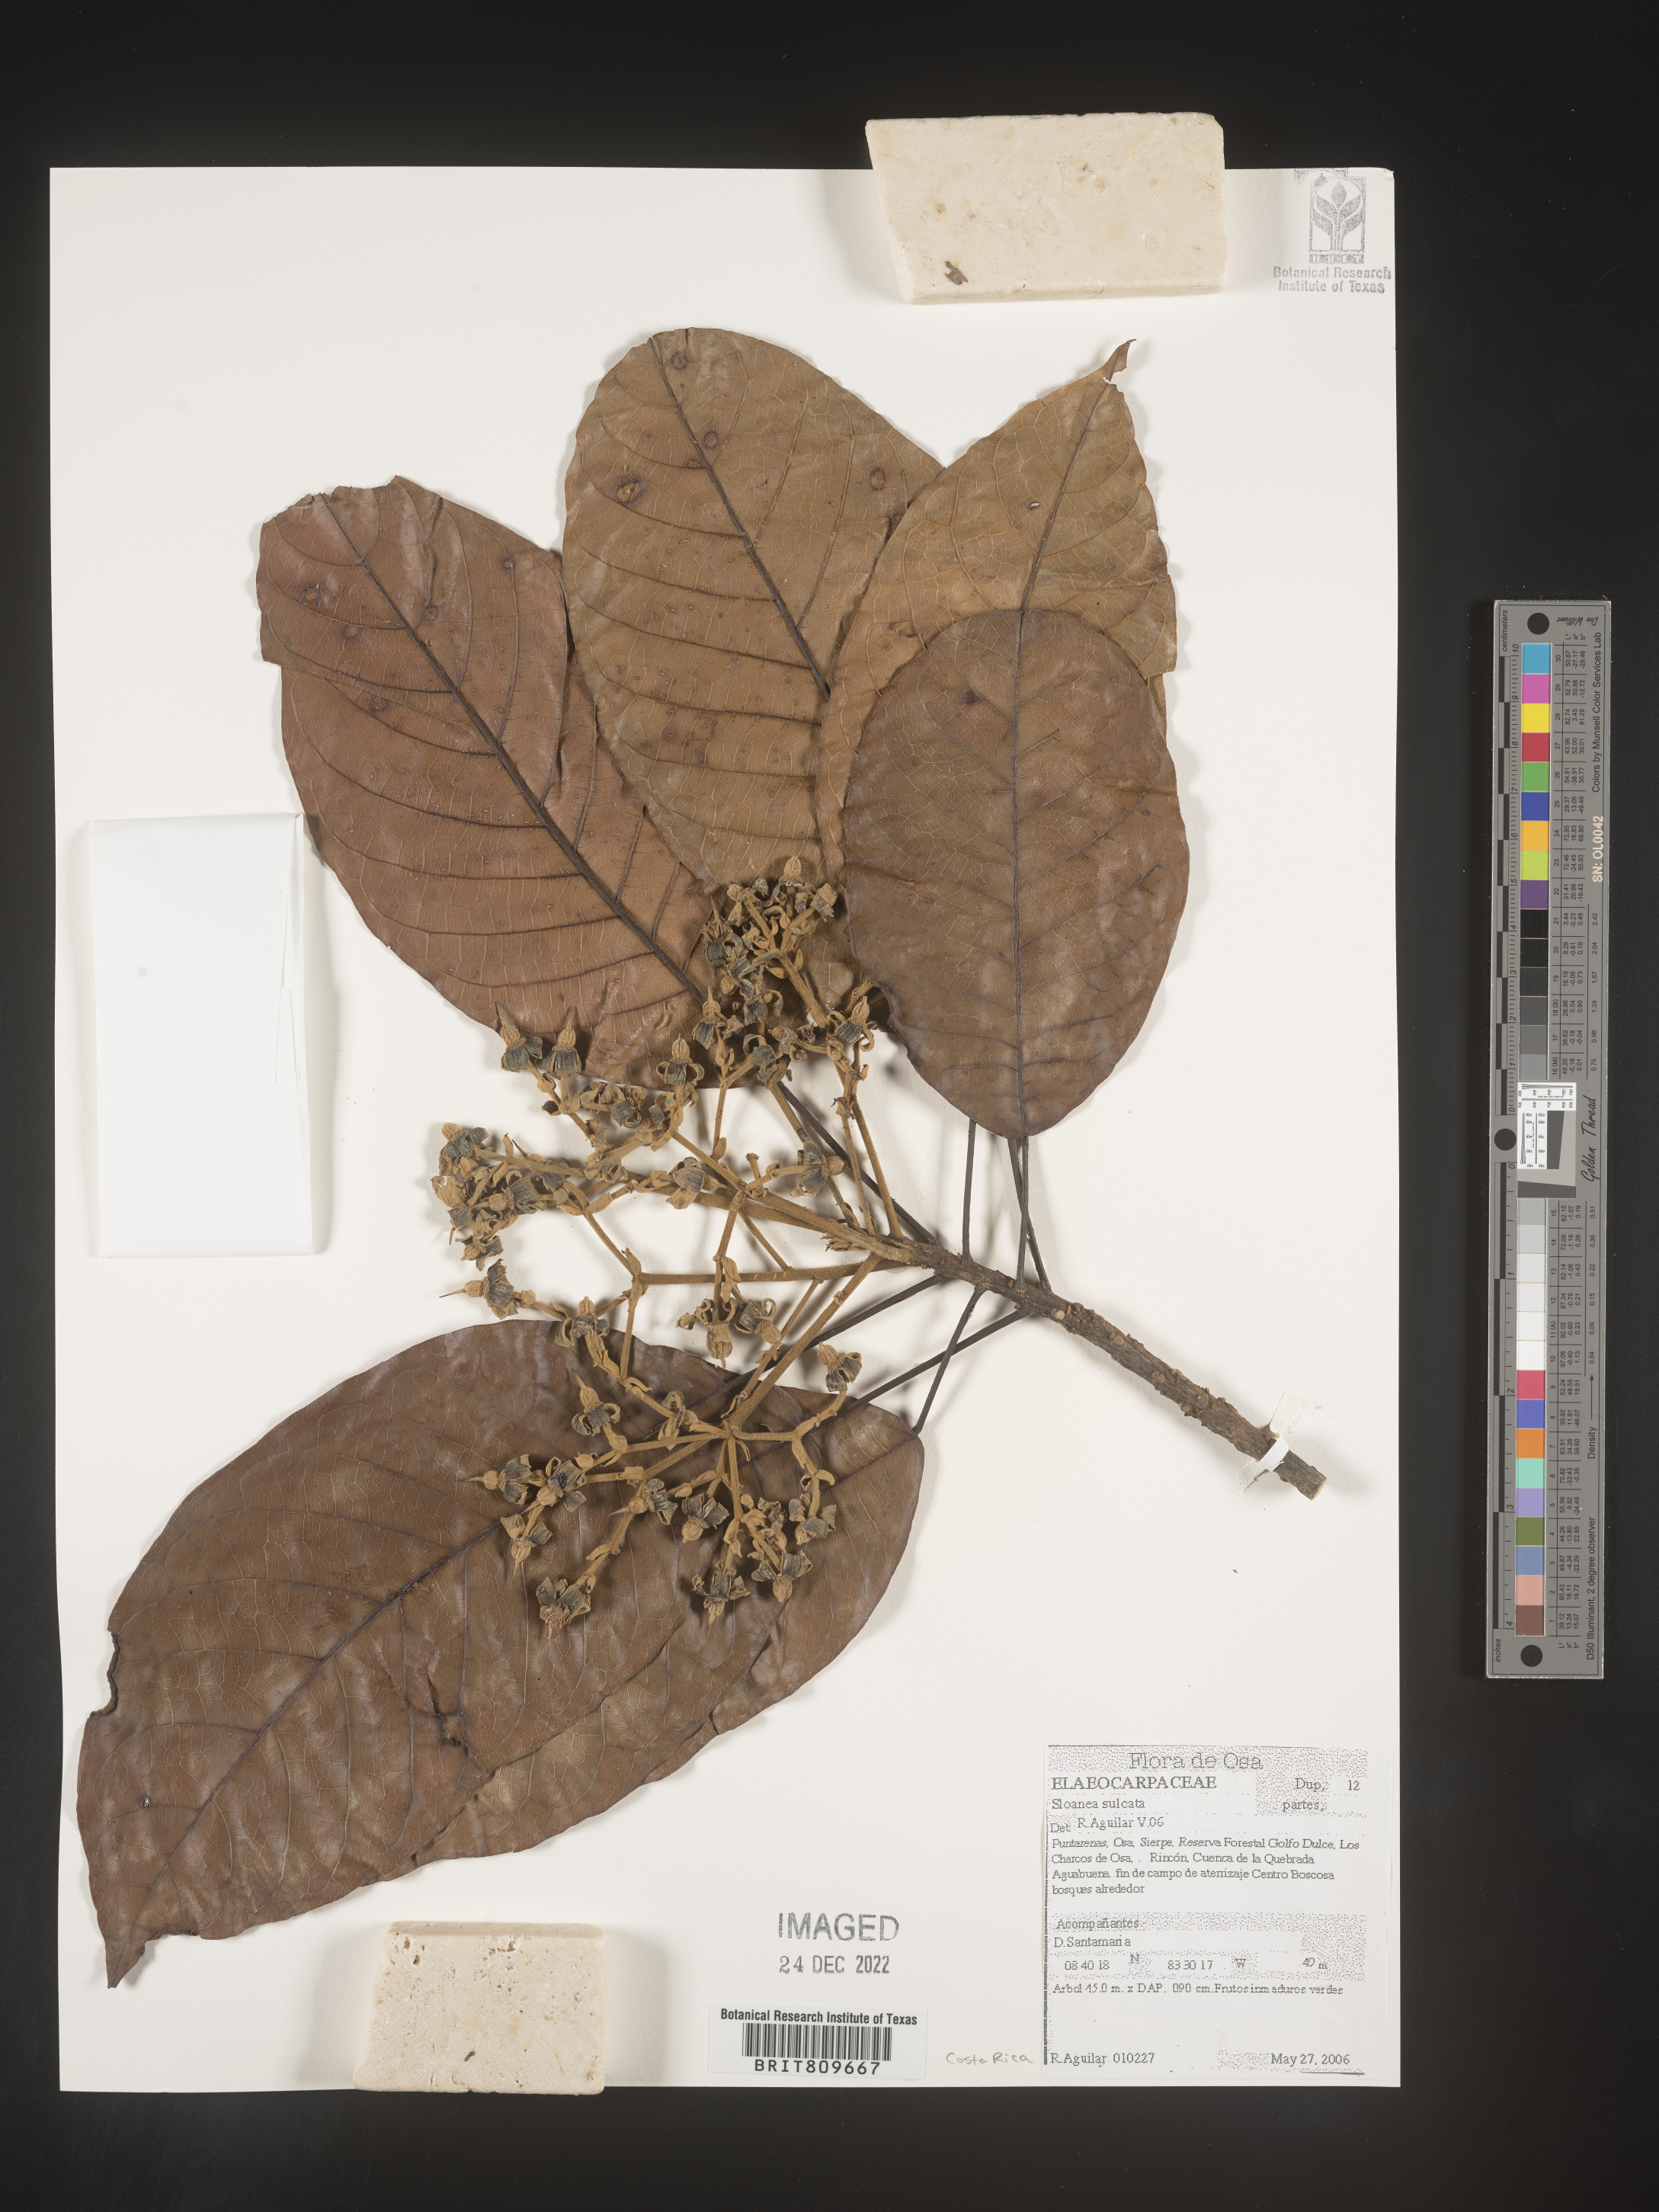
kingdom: Plantae
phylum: Tracheophyta
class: Magnoliopsida
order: Oxalidales
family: Elaeocarpaceae
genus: Sloanea
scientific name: Sloanea
